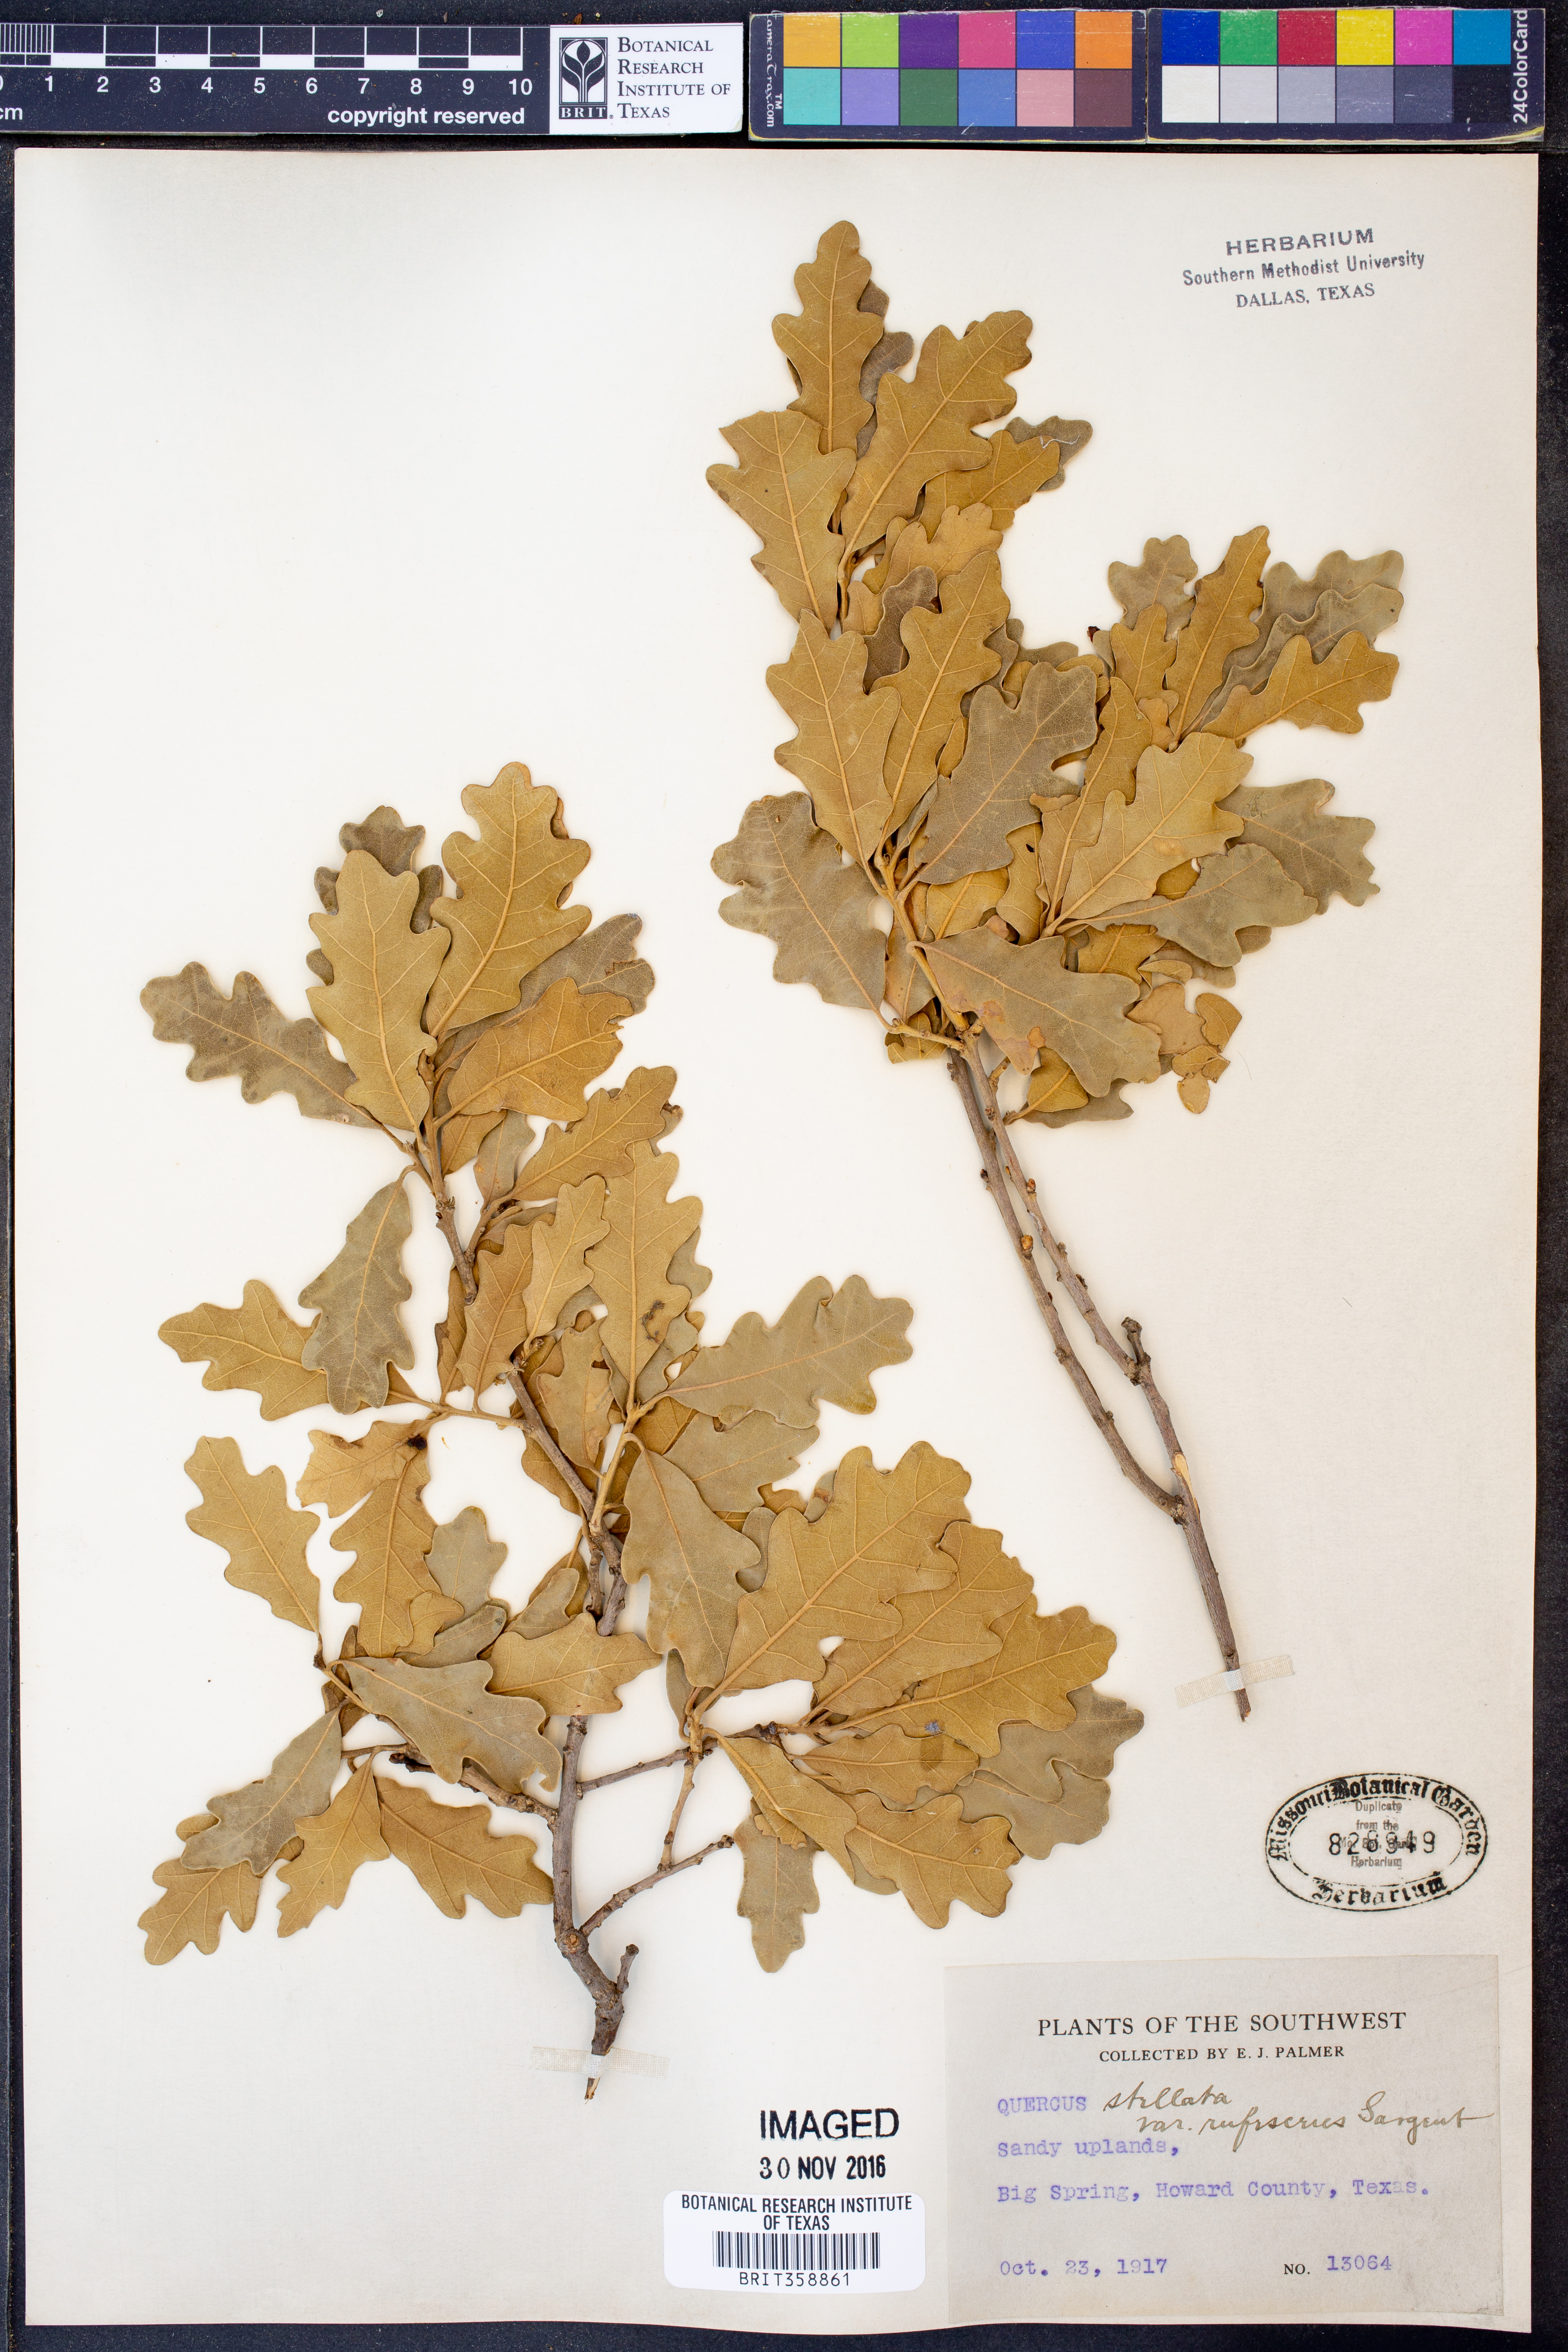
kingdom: Plantae
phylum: Tracheophyta
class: Magnoliopsida
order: Fagales
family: Fagaceae
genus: Quercus
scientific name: Quercus stellata
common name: Post oak
